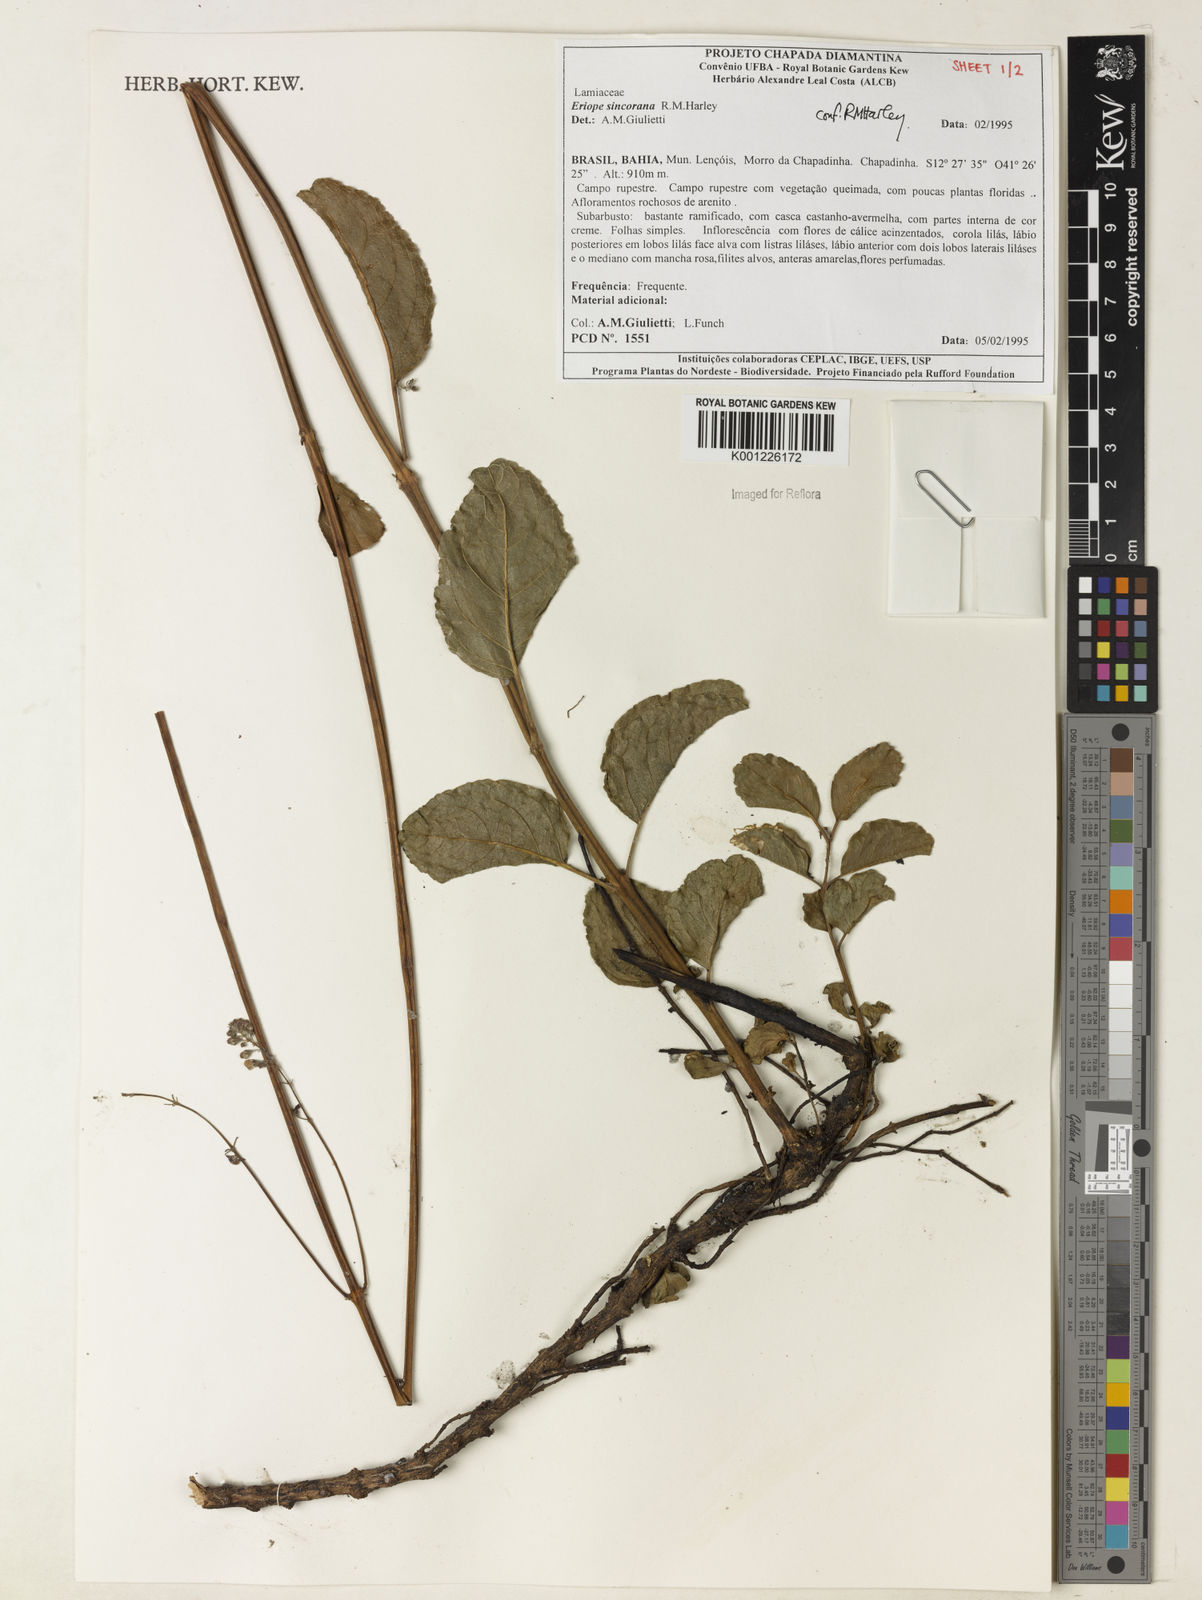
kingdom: Plantae
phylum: Tracheophyta
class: Magnoliopsida
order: Lamiales
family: Lamiaceae
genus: Eriope
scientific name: Eriope sincorana
